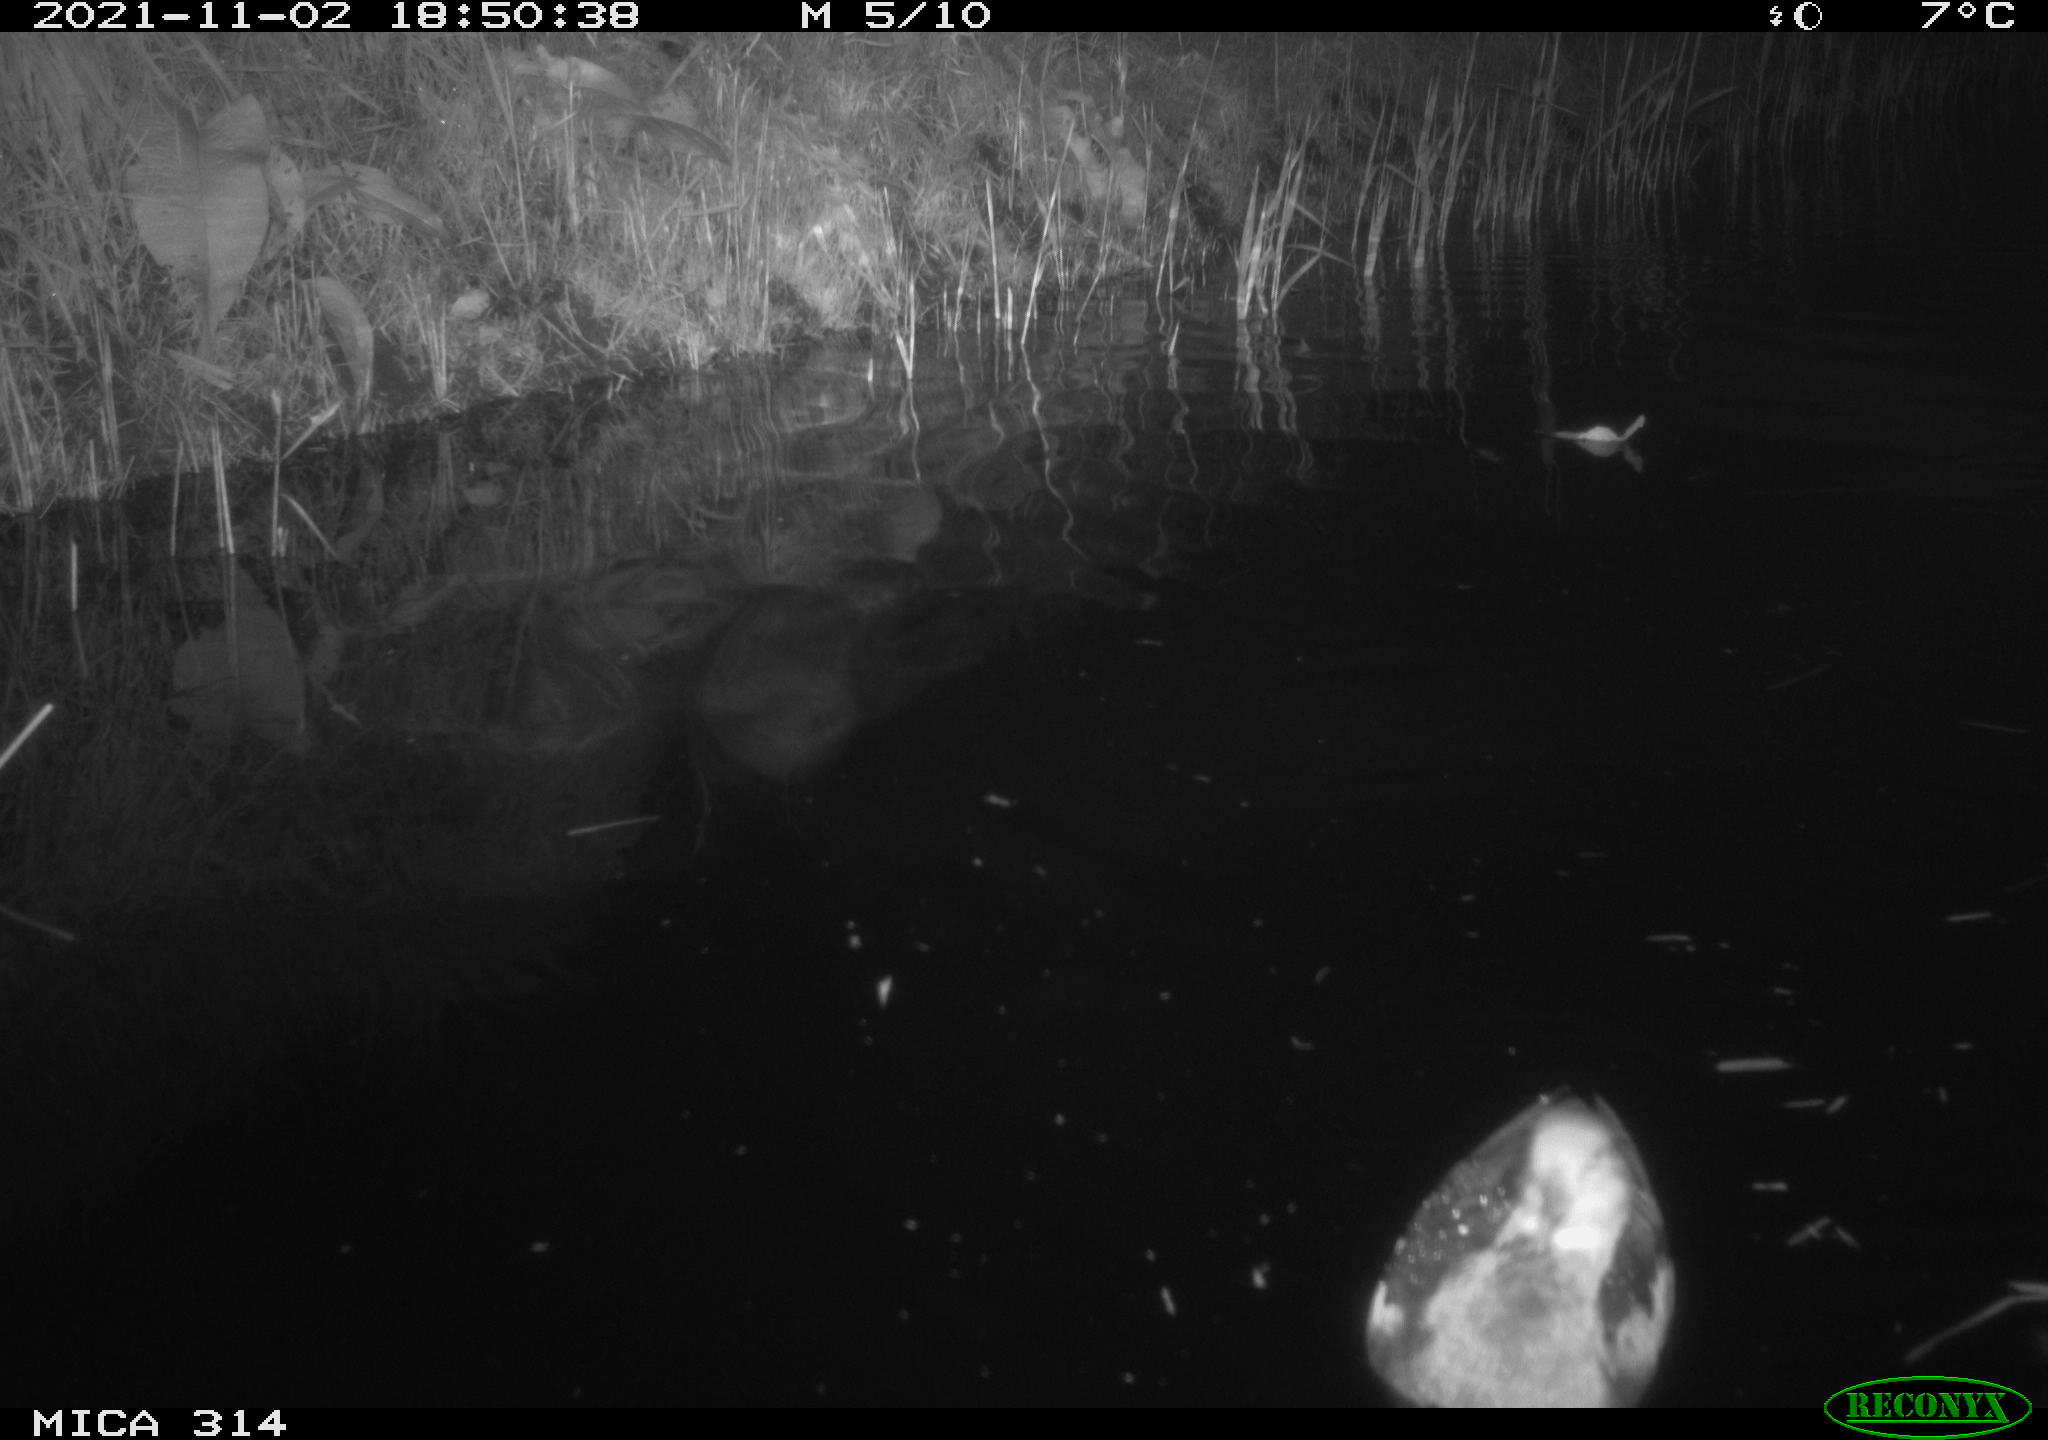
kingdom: Animalia
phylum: Chordata
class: Aves
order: Gruiformes
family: Rallidae
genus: Gallinula
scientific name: Gallinula chloropus
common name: Common moorhen
